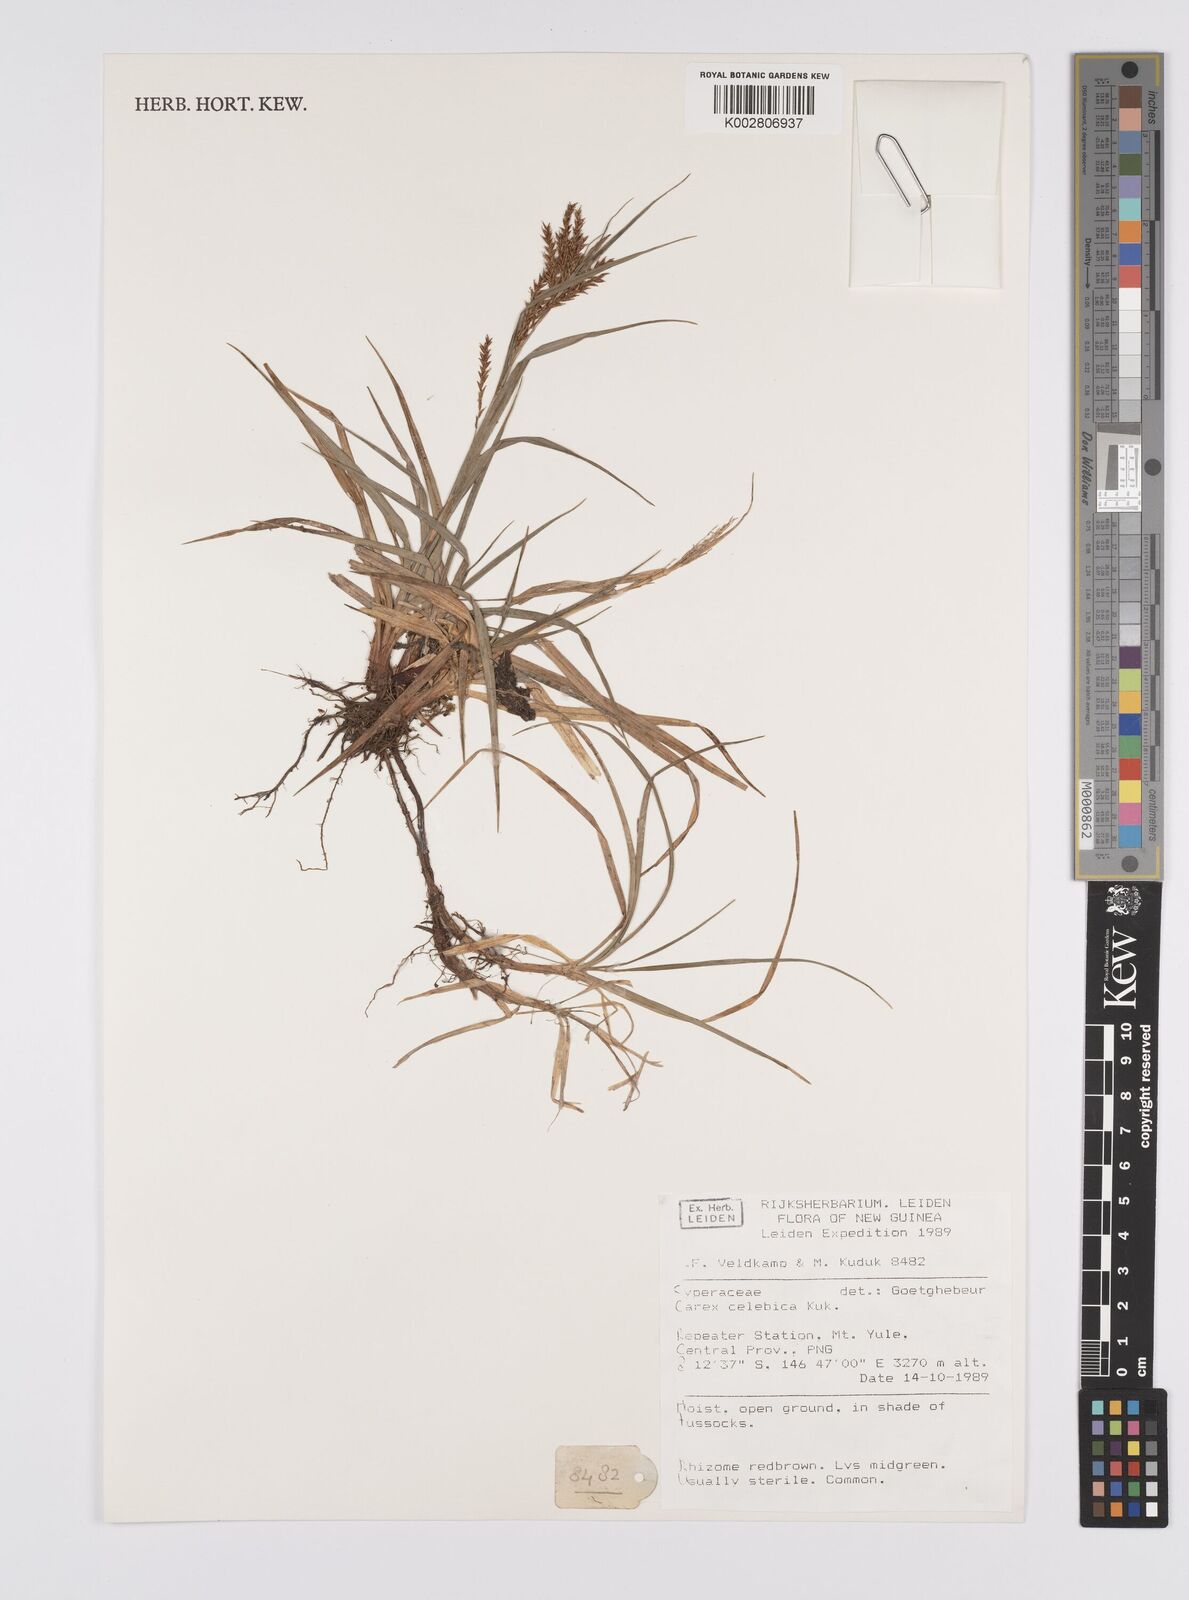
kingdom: Plantae
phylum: Tracheophyta
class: Liliopsida
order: Poales
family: Cyperaceae
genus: Carex
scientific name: Carex celebica
